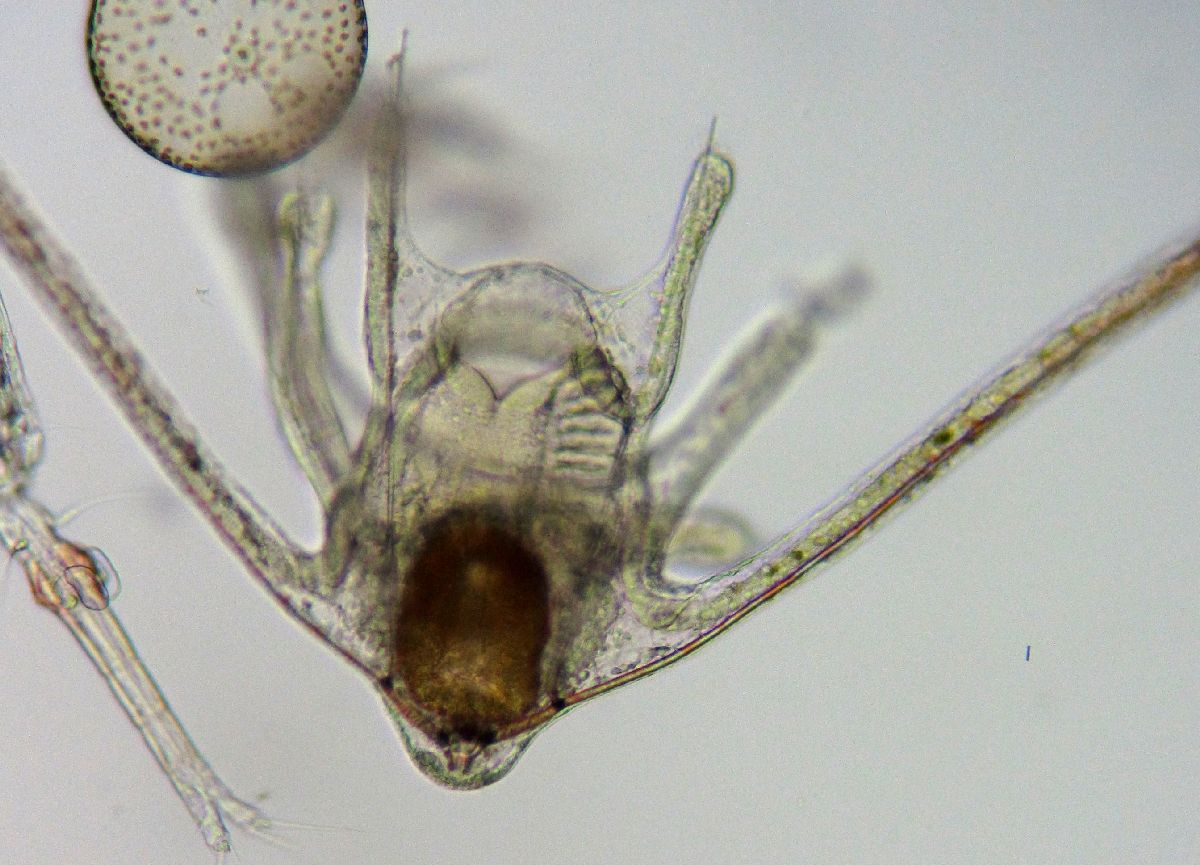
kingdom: Animalia
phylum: Echinodermata
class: Ophiuroidea
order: Amphilepidida
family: Ophiopholidae
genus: Ophiopholis
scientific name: Ophiopholis aculeata
